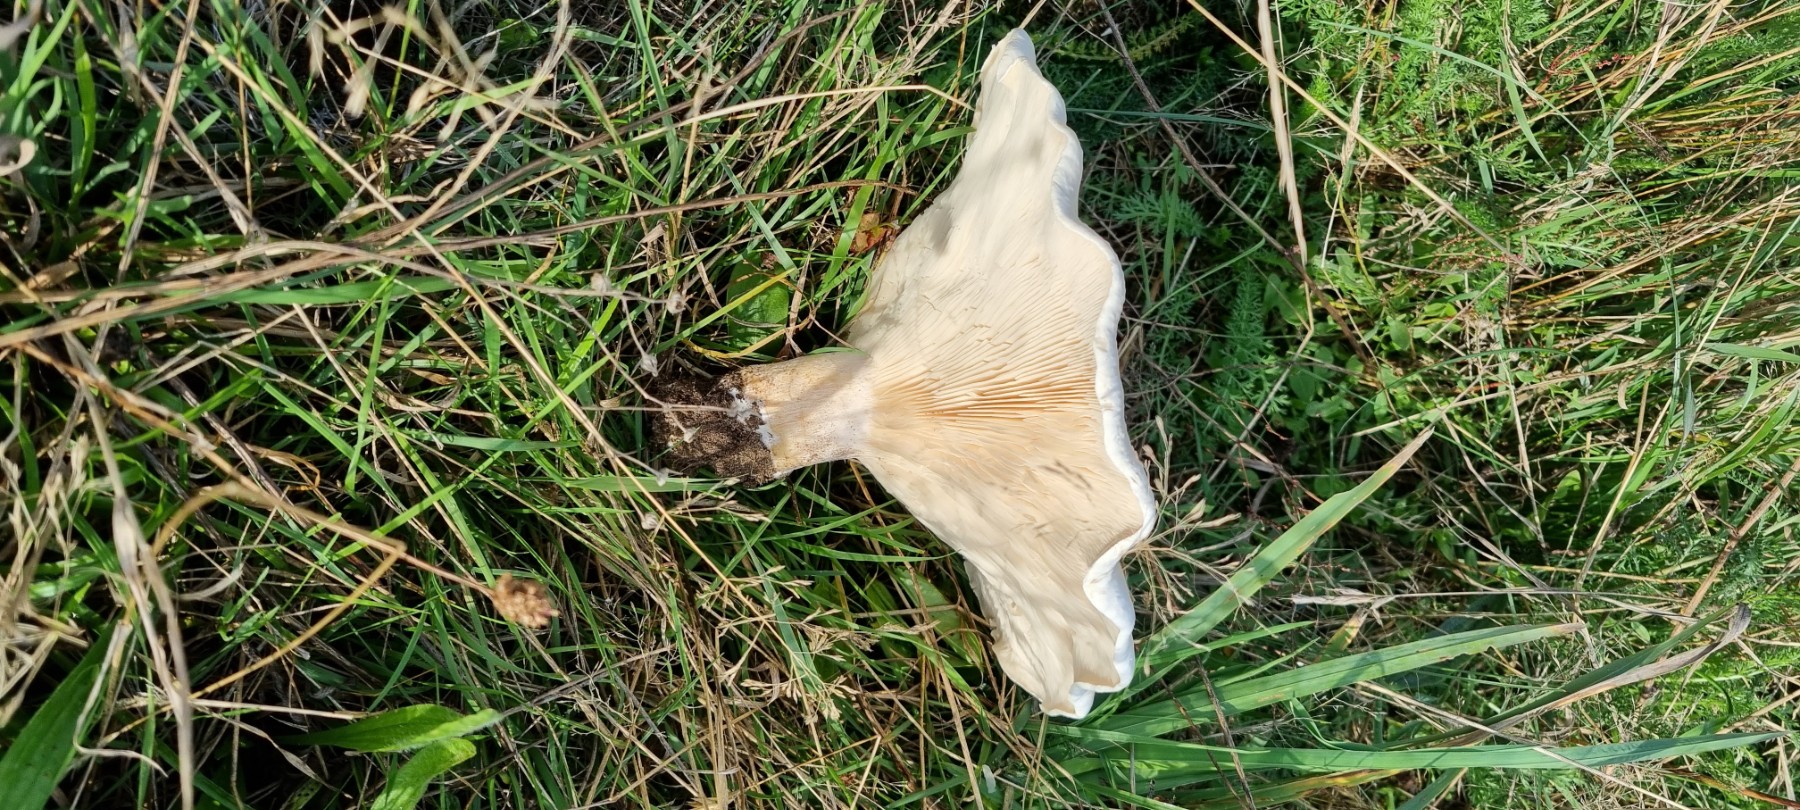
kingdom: Fungi
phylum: Basidiomycota
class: Agaricomycetes
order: Agaricales
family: Tricholomataceae
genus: Aspropaxillus
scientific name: Aspropaxillus giganteus
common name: kæmpe-tragtridderhat
